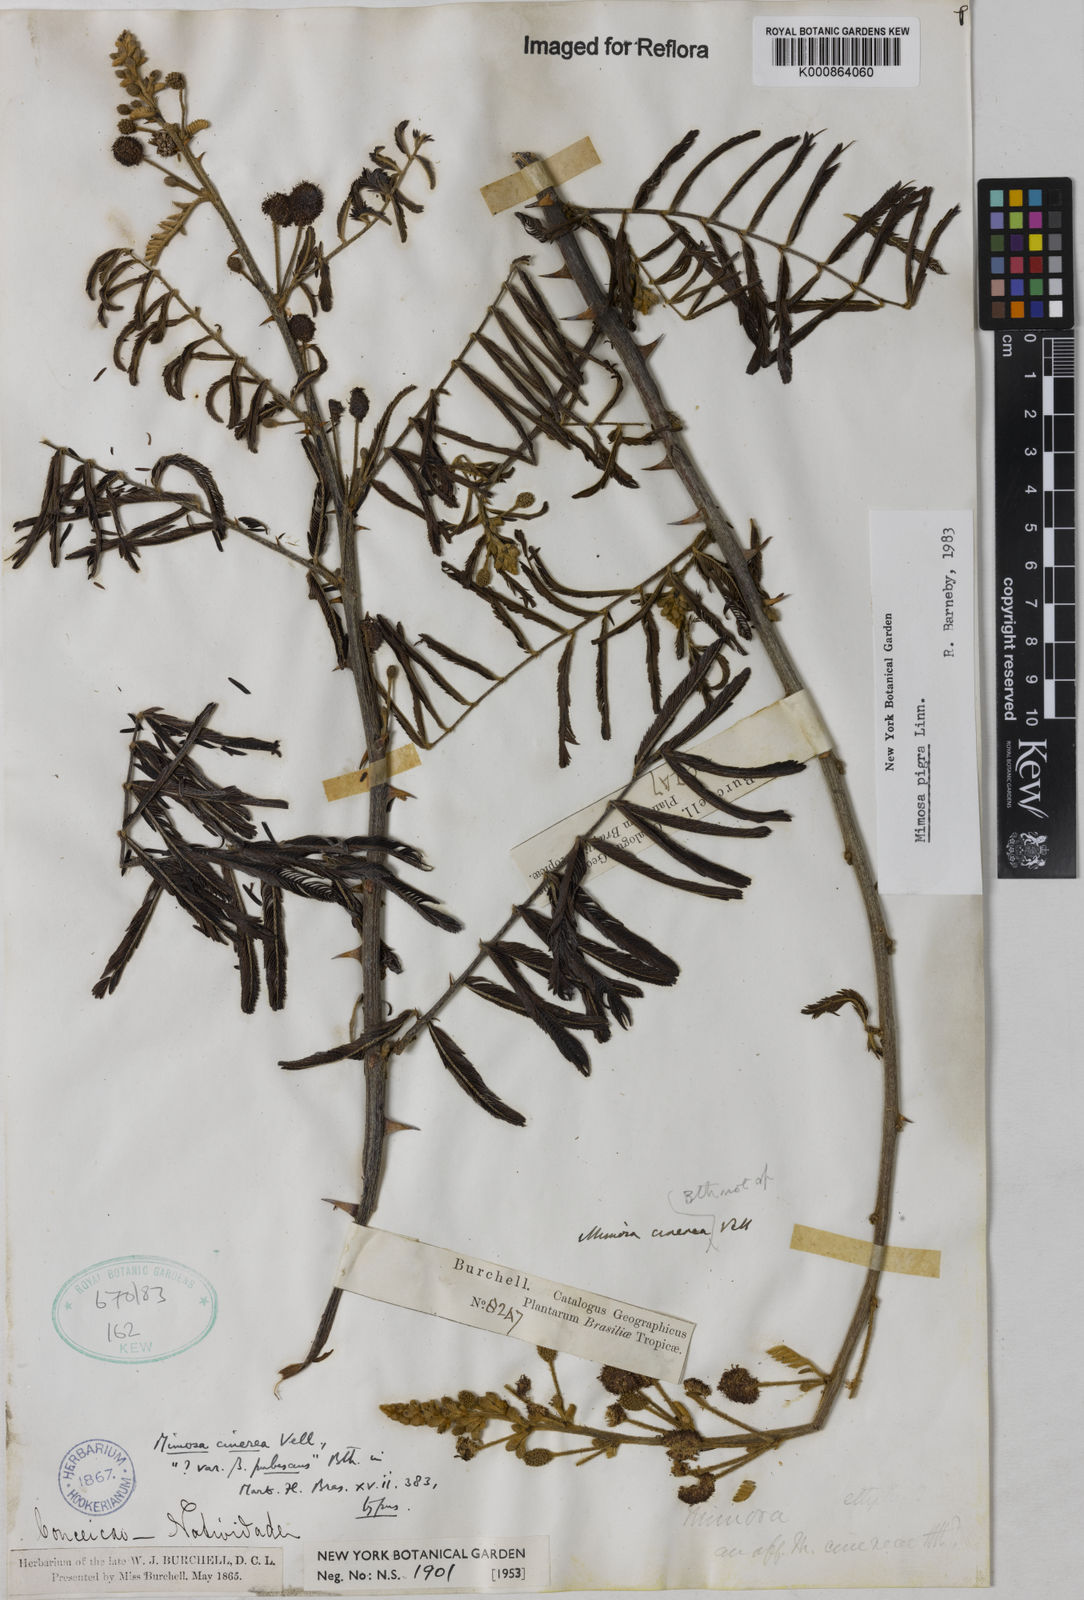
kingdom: Plantae
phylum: Tracheophyta
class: Magnoliopsida
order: Fabales
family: Fabaceae
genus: Mimosa
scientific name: Mimosa pigra
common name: Black mimosa
